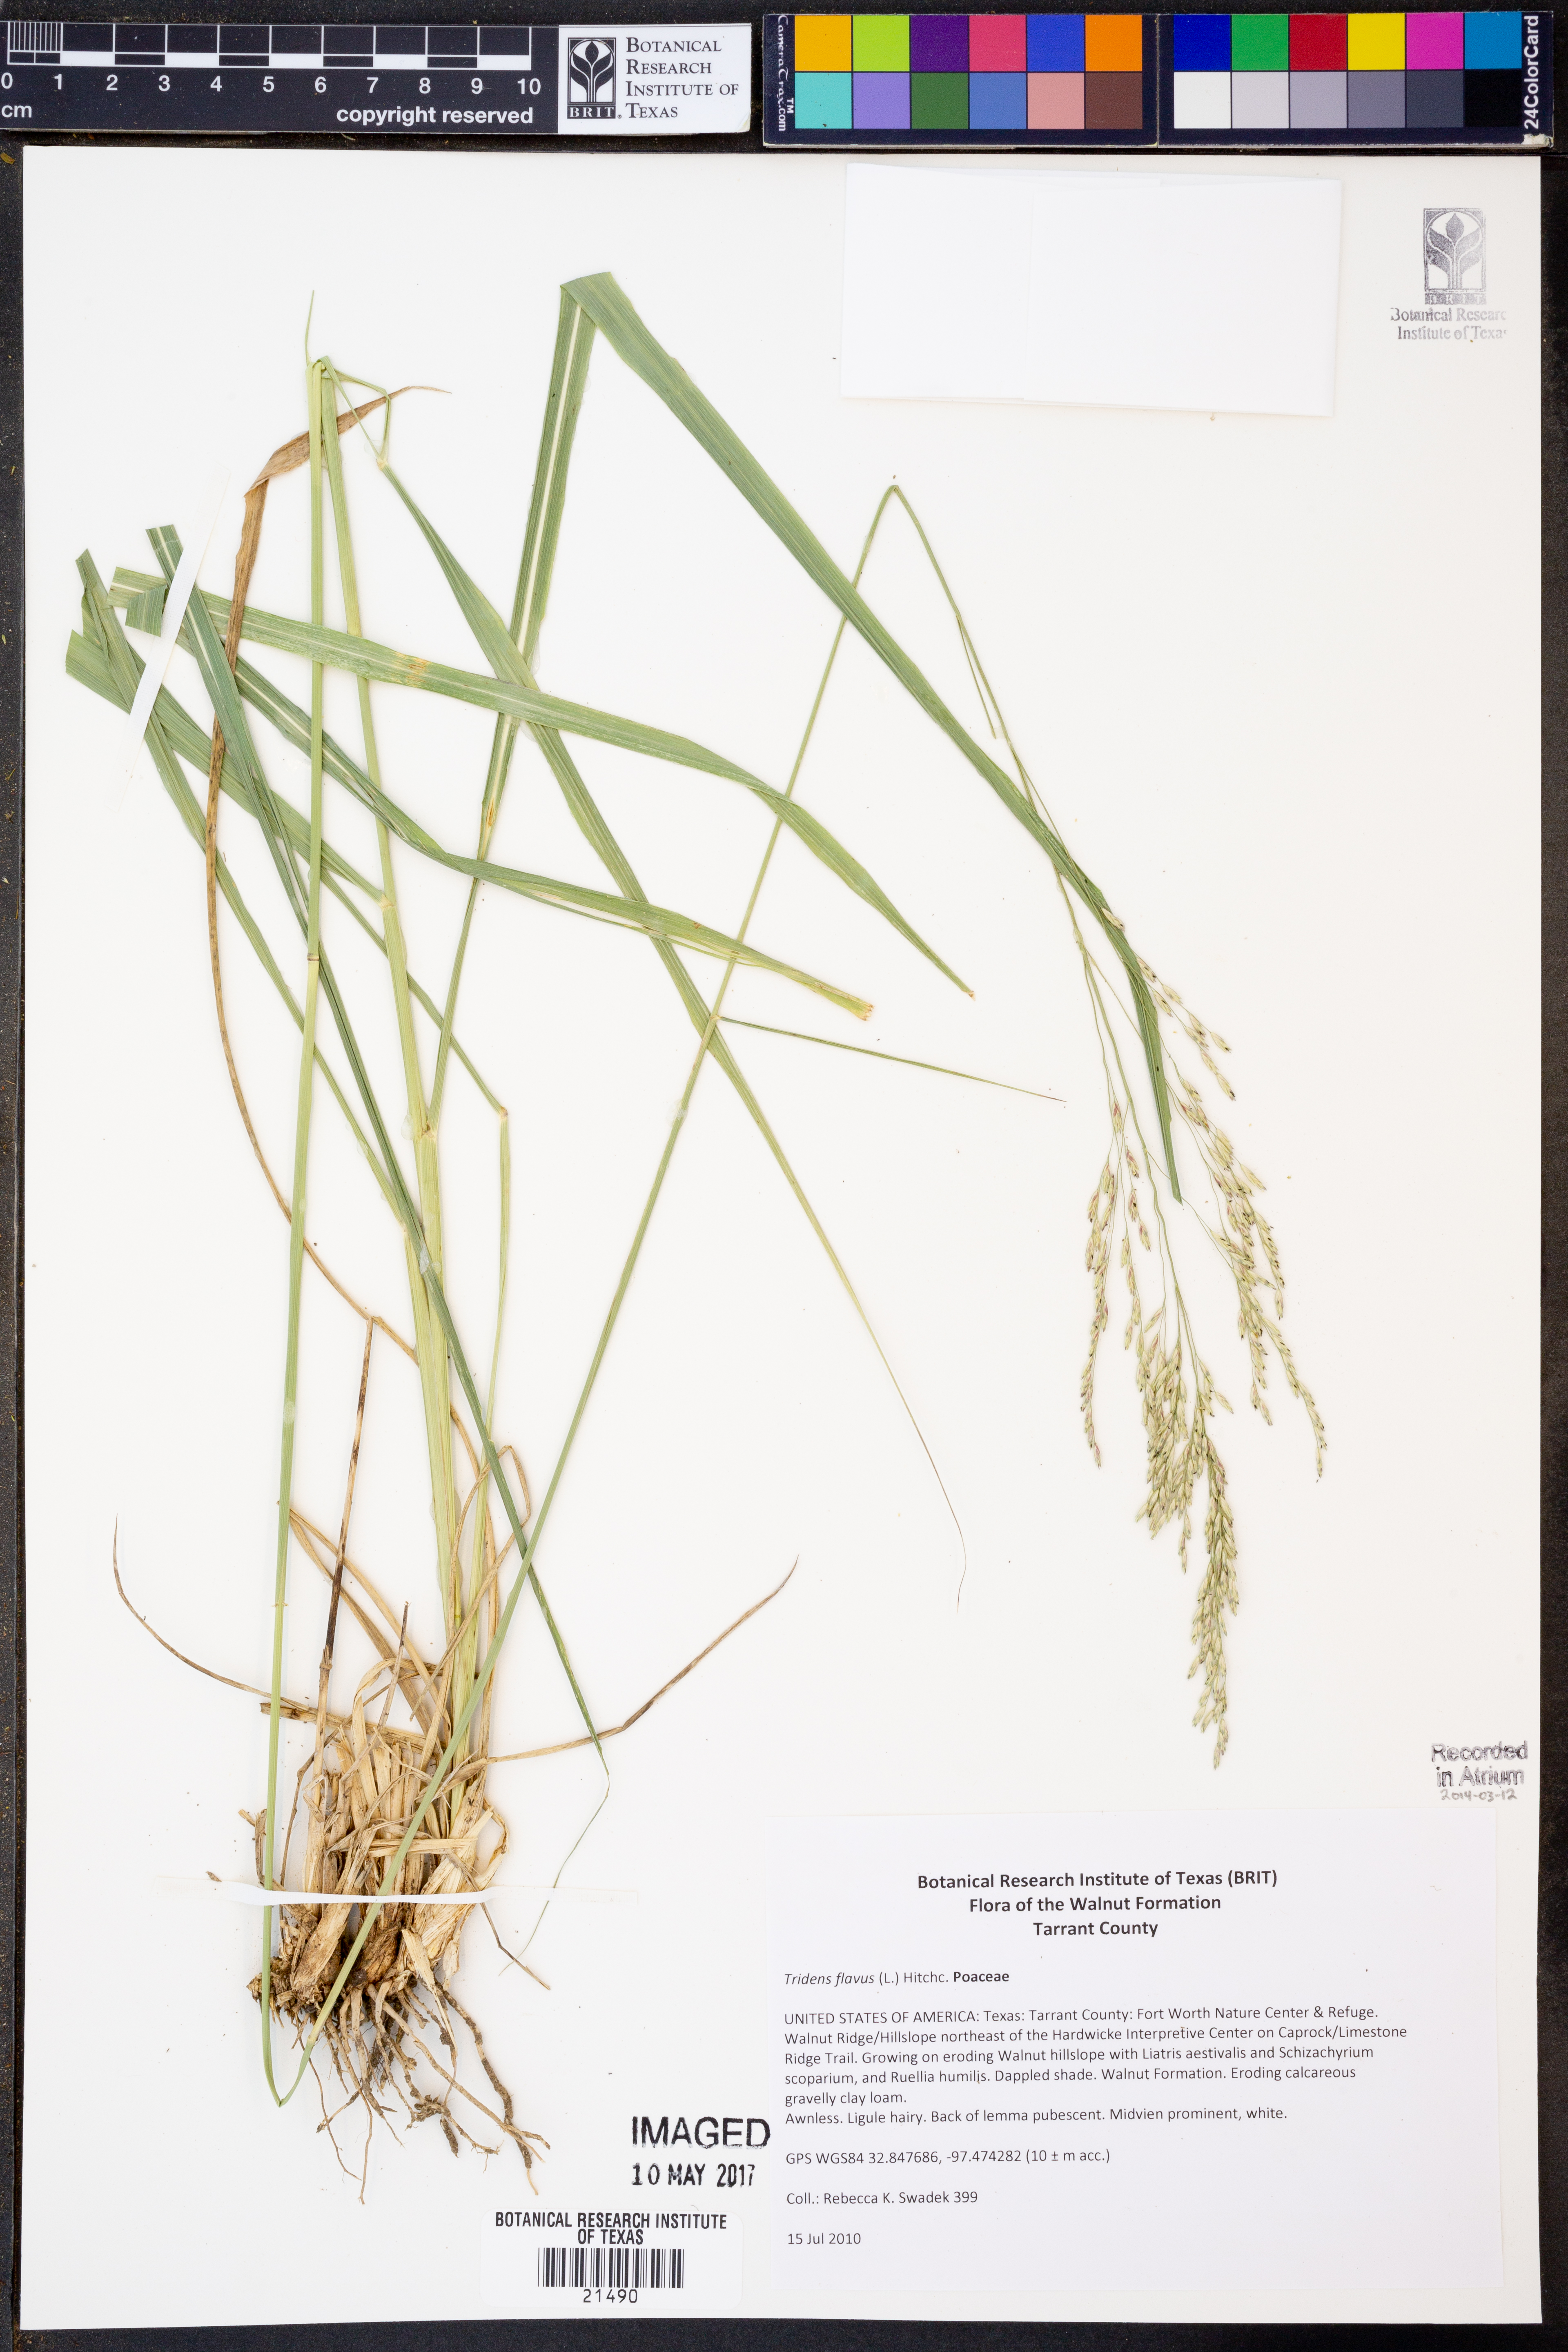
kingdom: Plantae
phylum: Tracheophyta
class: Liliopsida
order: Poales
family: Poaceae
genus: Tridens
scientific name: Tridens flavus
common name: Purpletop
